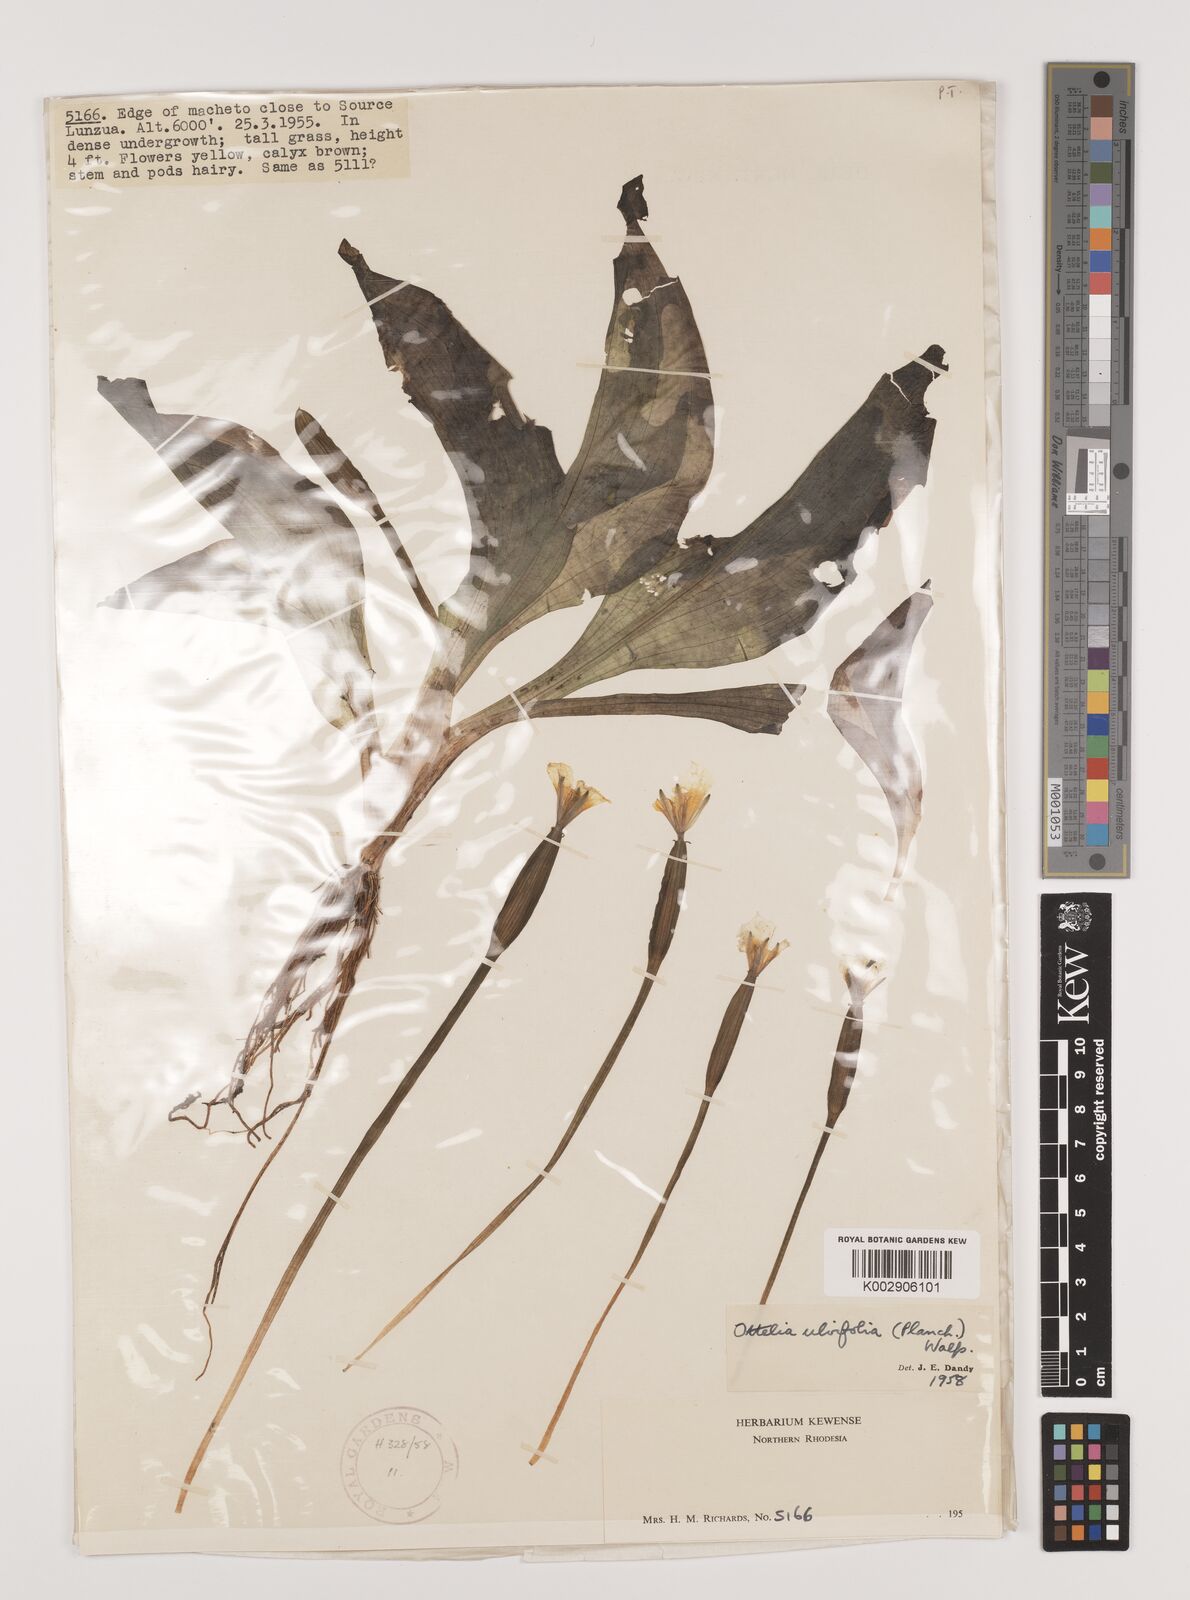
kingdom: Plantae
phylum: Tracheophyta
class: Liliopsida
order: Alismatales
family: Hydrocharitaceae
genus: Ottelia
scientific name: Ottelia ulvifolia
